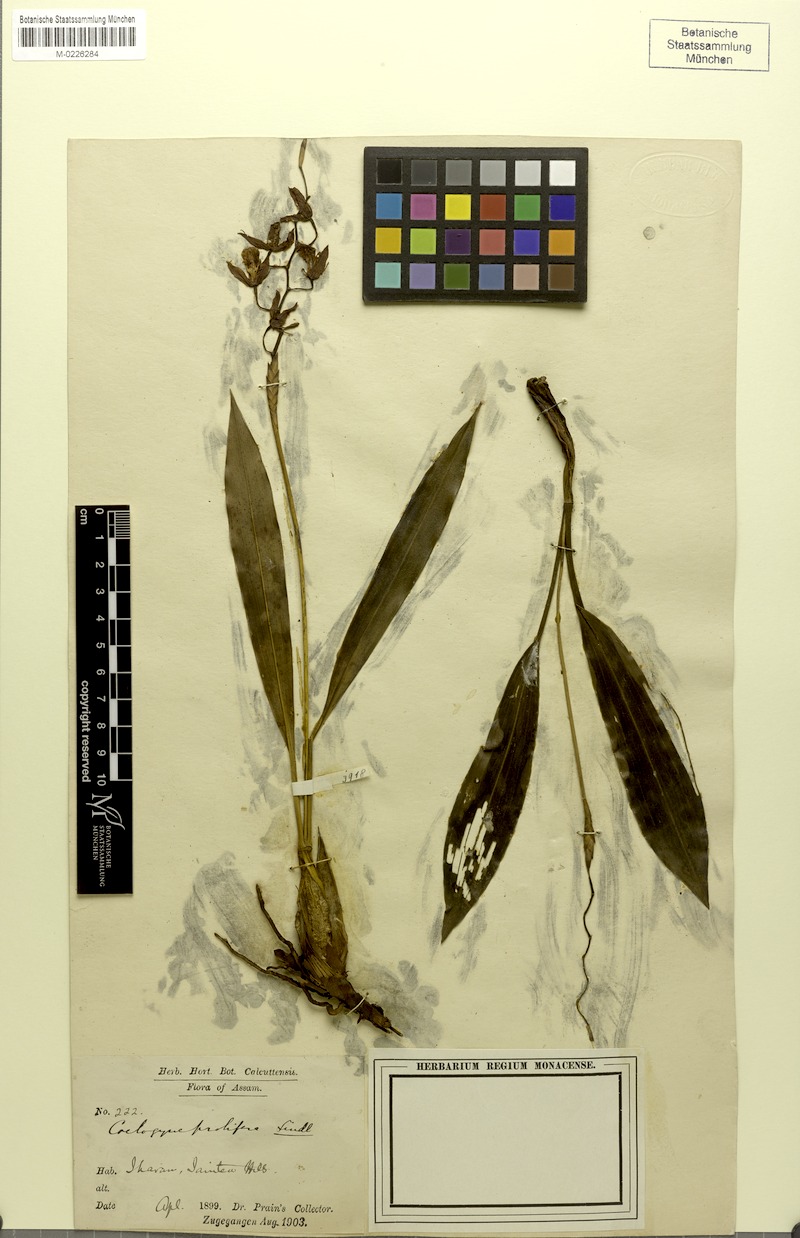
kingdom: Plantae
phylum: Tracheophyta
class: Liliopsida
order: Asparagales
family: Orchidaceae
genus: Coelogyne
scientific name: Coelogyne prolifera
